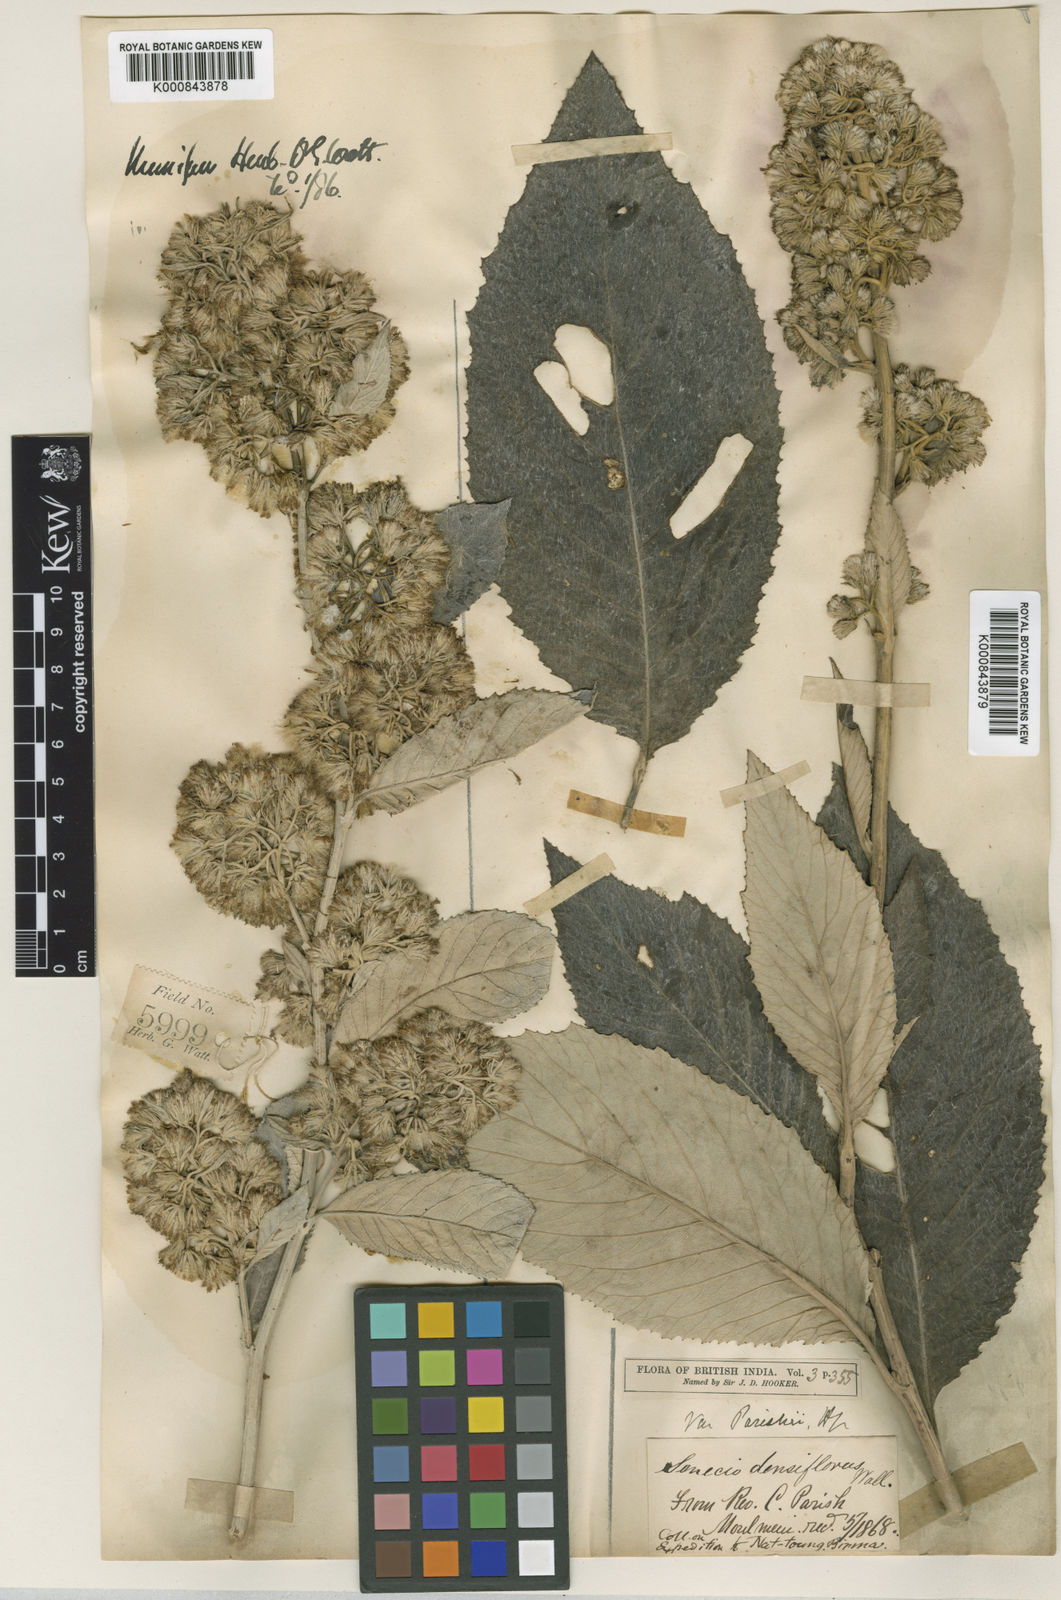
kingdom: Plantae
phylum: Tracheophyta
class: Magnoliopsida
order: Asterales
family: Asteraceae
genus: Synotis
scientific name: Synotis nagensium
